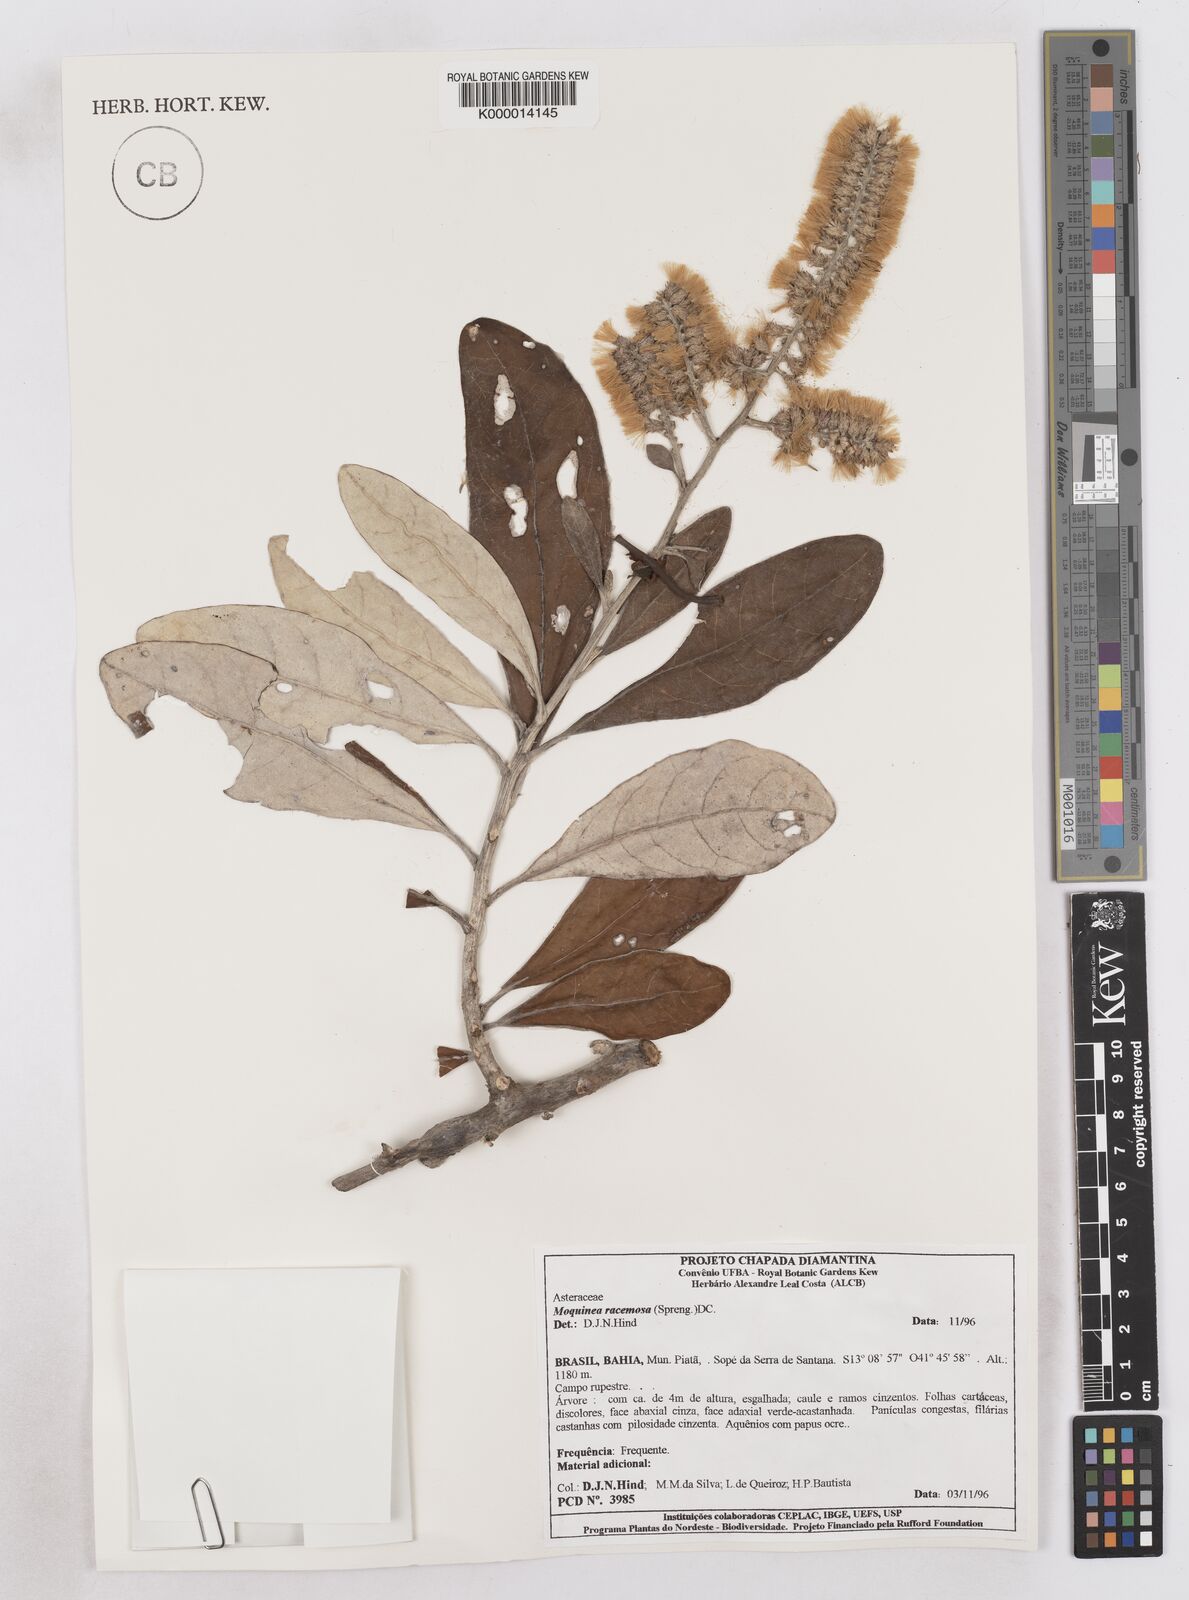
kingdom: Plantae
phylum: Tracheophyta
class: Magnoliopsida
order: Asterales
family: Asteraceae
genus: Moquinia
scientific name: Moquinia racemosa
